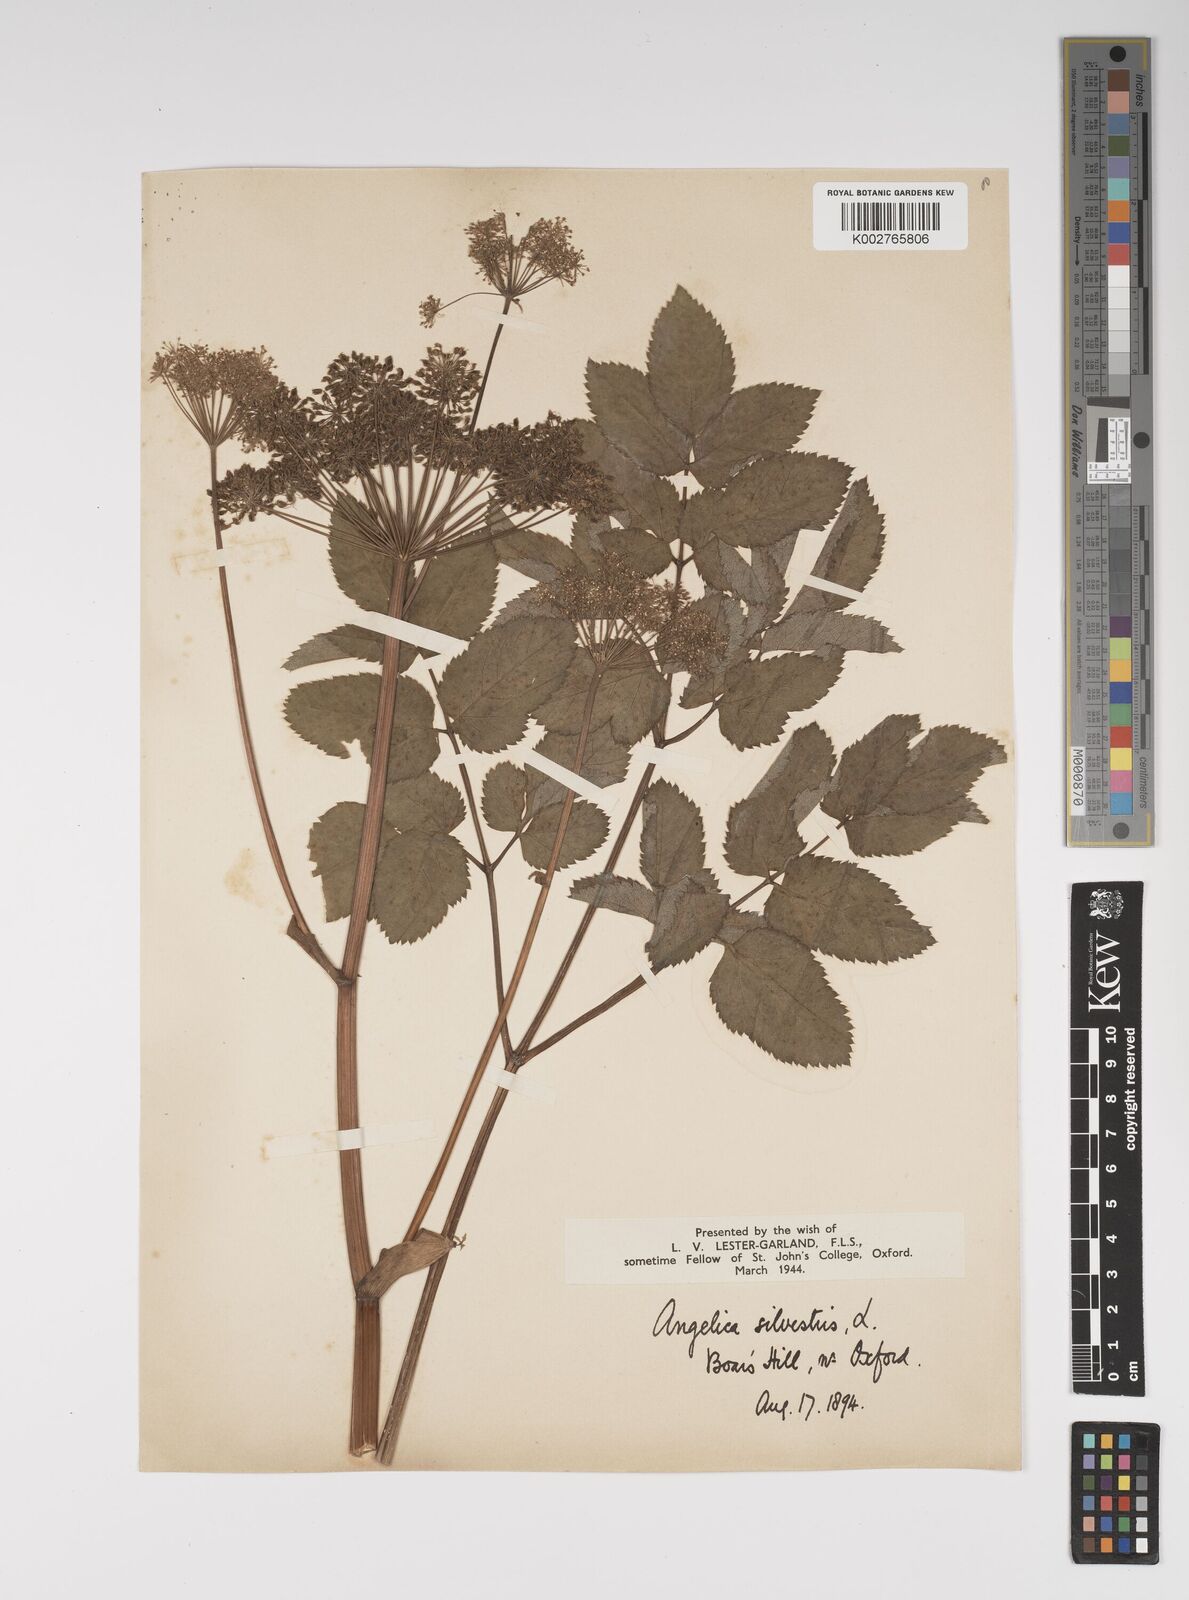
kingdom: Plantae
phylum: Tracheophyta
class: Magnoliopsida
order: Apiales
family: Apiaceae
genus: Angelica
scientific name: Angelica sylvestris
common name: Wild angelica
